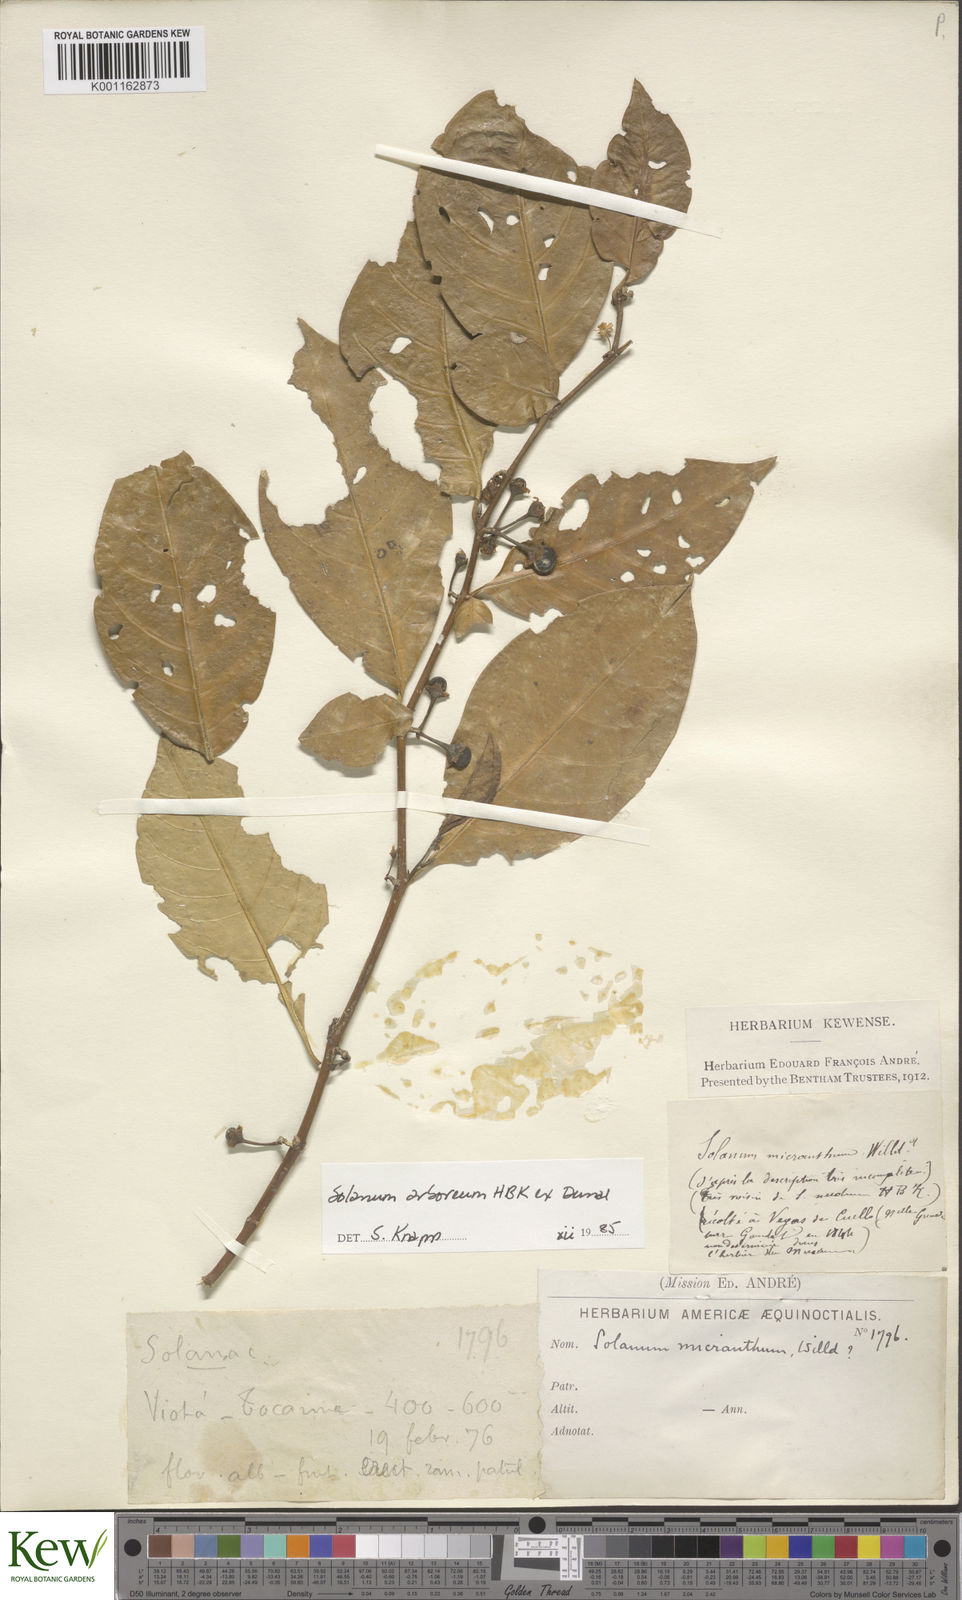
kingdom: Plantae
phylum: Tracheophyta
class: Magnoliopsida
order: Solanales
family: Solanaceae
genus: Solanum
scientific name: Solanum arboreum
